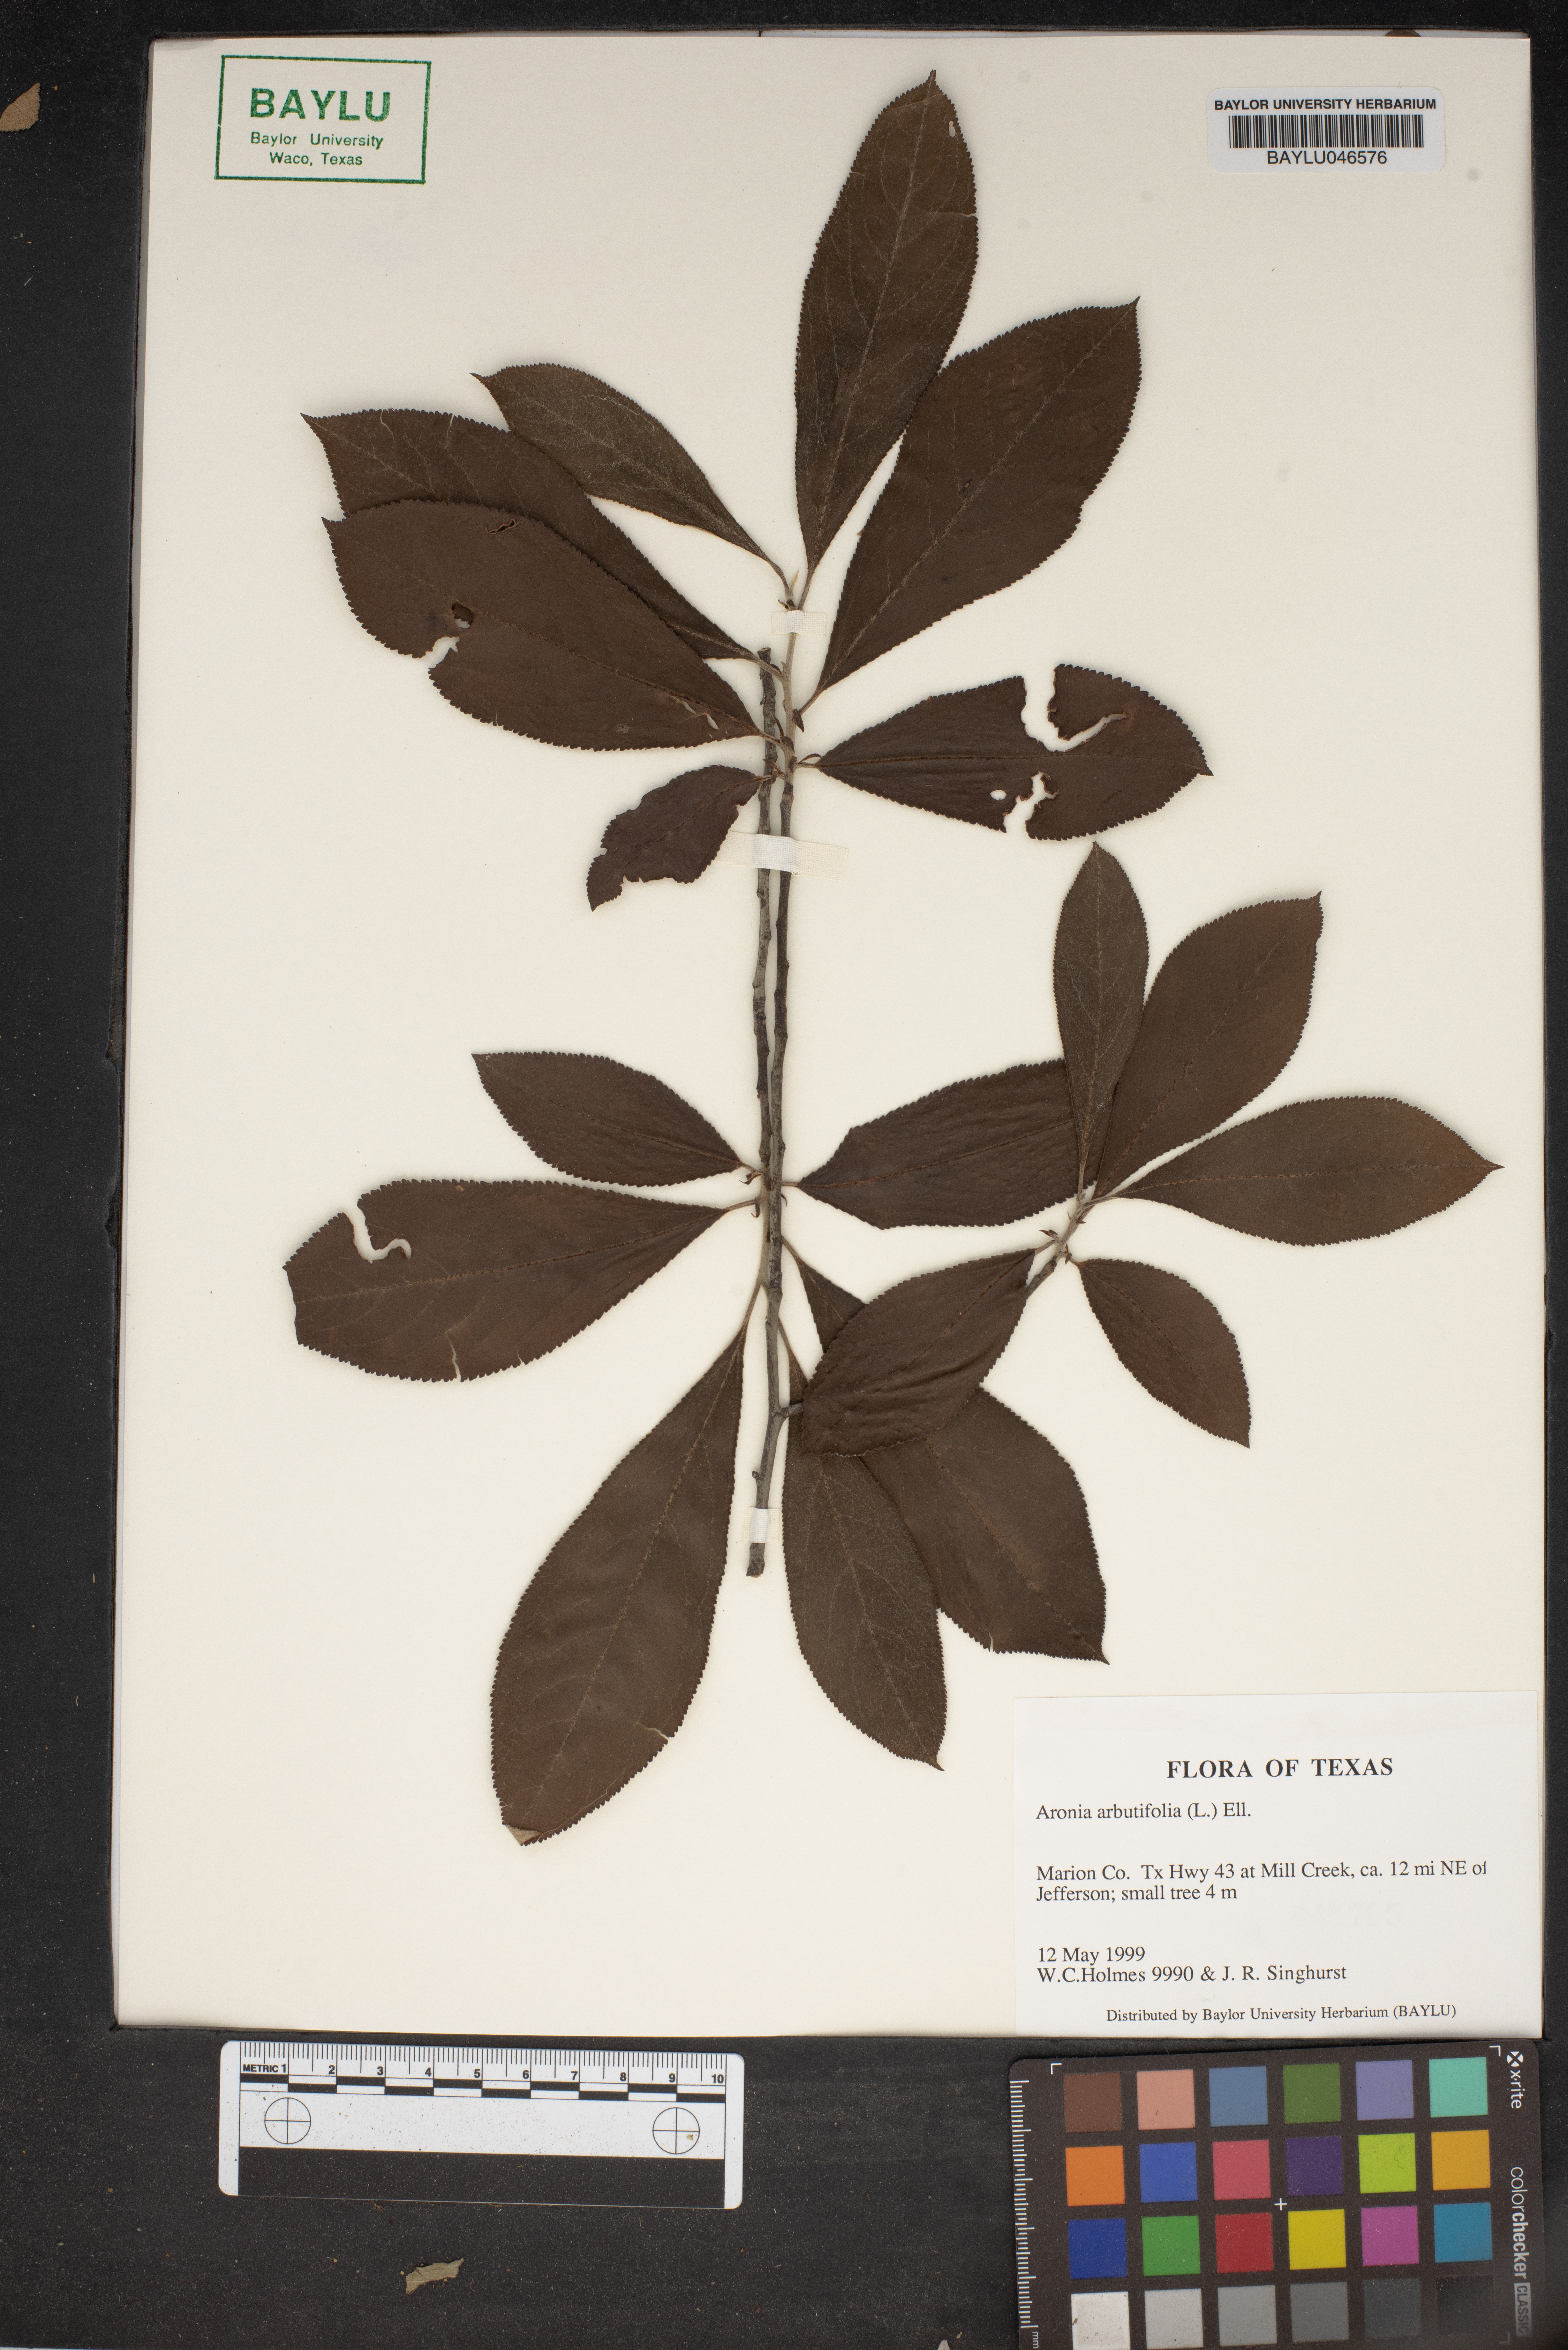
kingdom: Plantae
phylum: Tracheophyta
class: Magnoliopsida
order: Rosales
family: Rosaceae
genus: Aronia
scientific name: Aronia arbutifolia
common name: Red chokeberry
